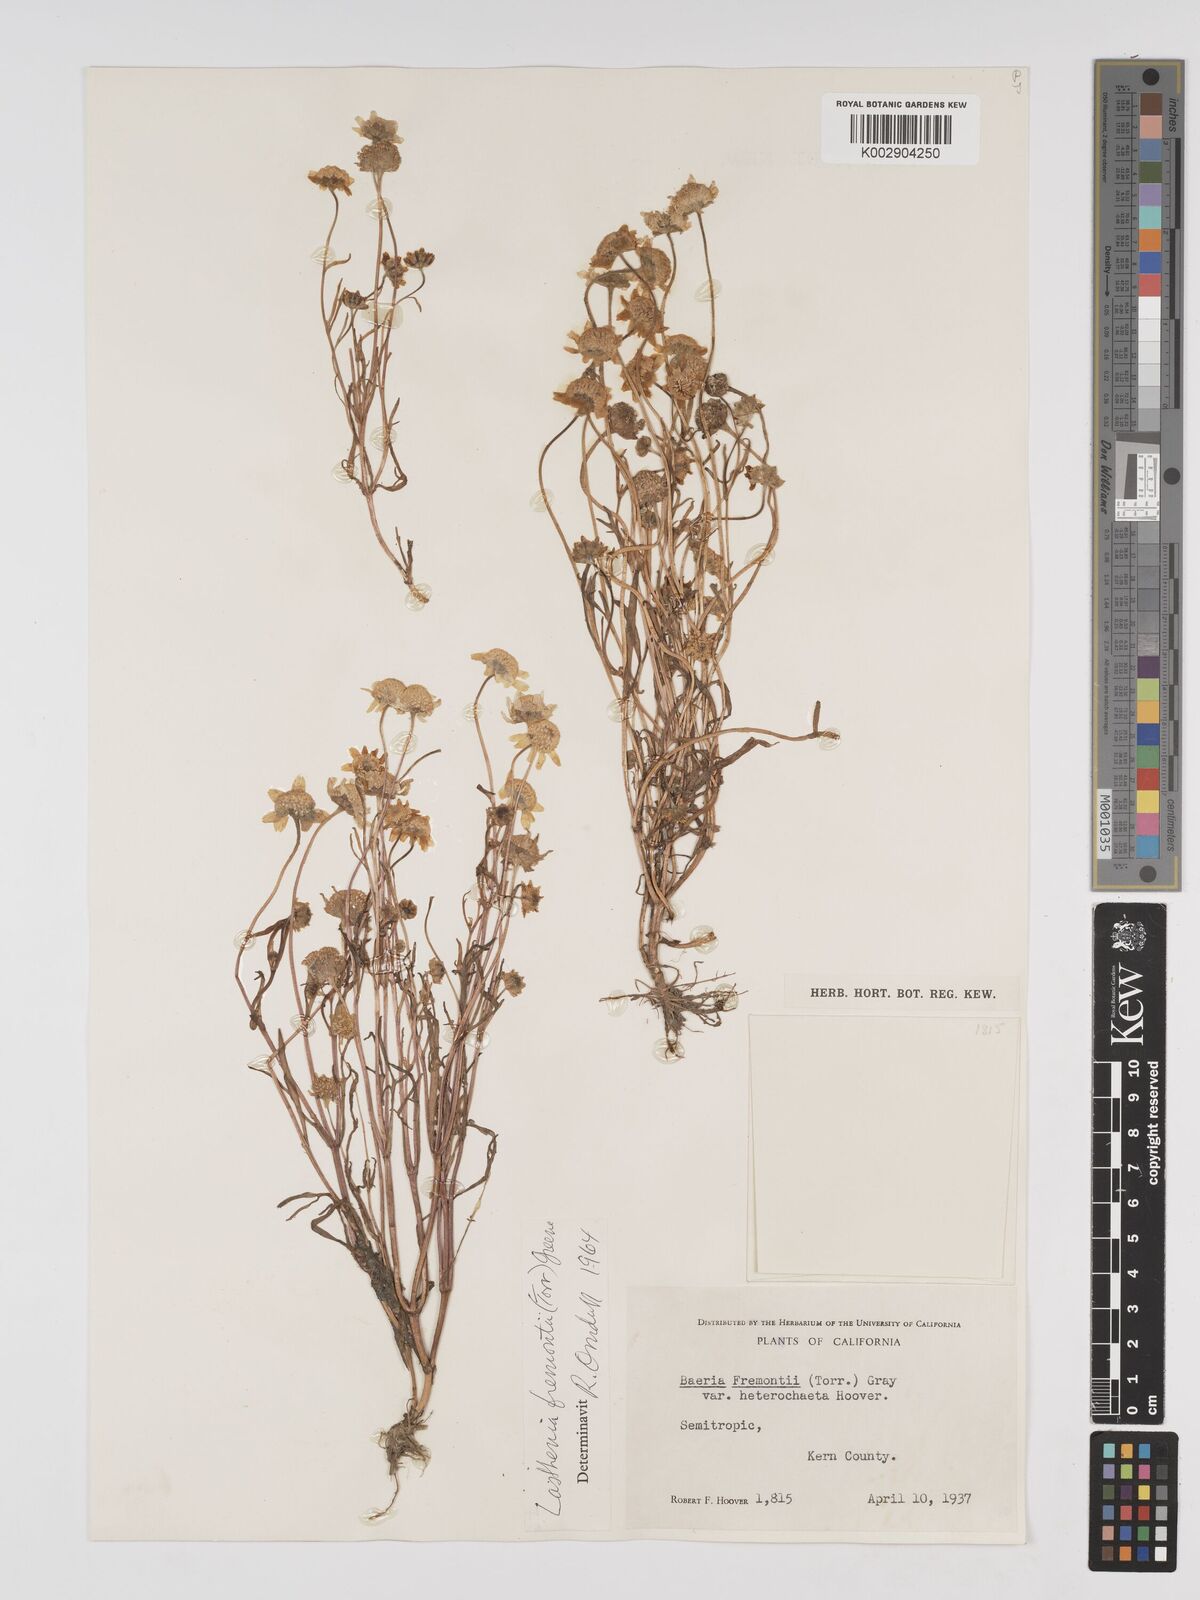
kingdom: Plantae
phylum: Tracheophyta
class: Magnoliopsida
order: Asterales
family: Asteraceae
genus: Lasthenia
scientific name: Lasthenia fremontii
